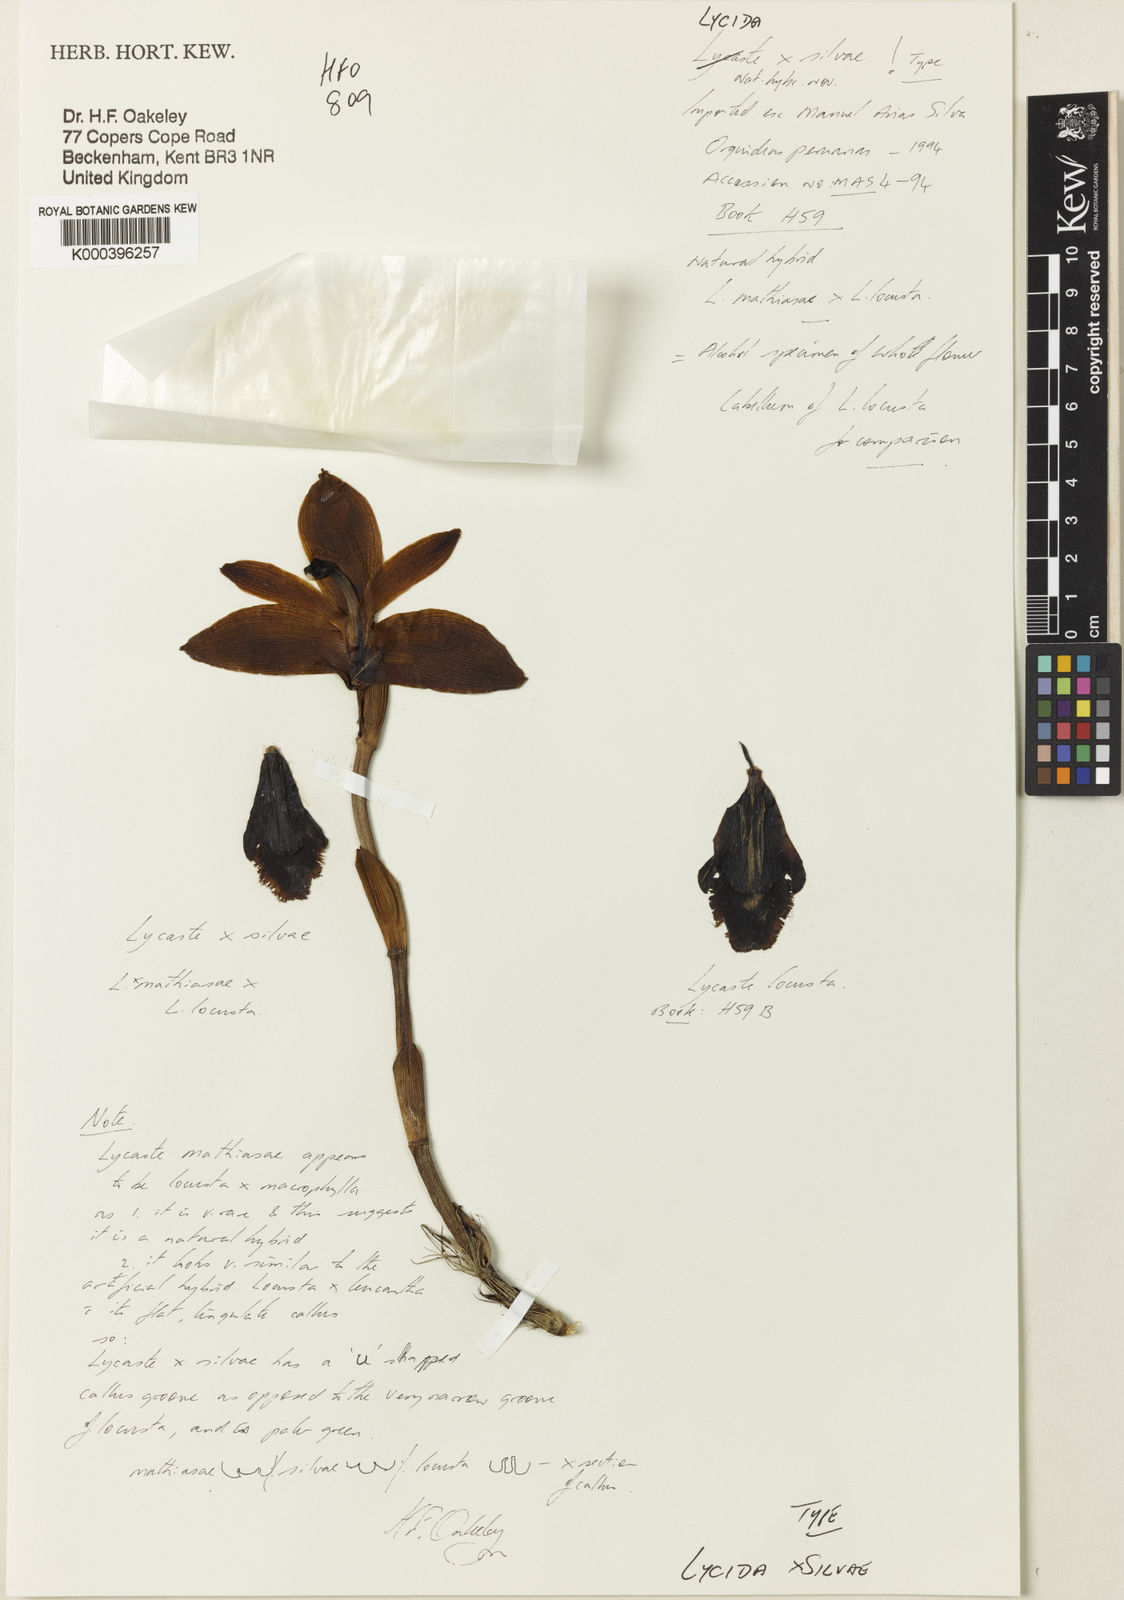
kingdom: Plantae
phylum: Tracheophyta
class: Liliopsida
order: Asparagales
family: Orchidaceae
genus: Lycaste
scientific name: Lycaste
